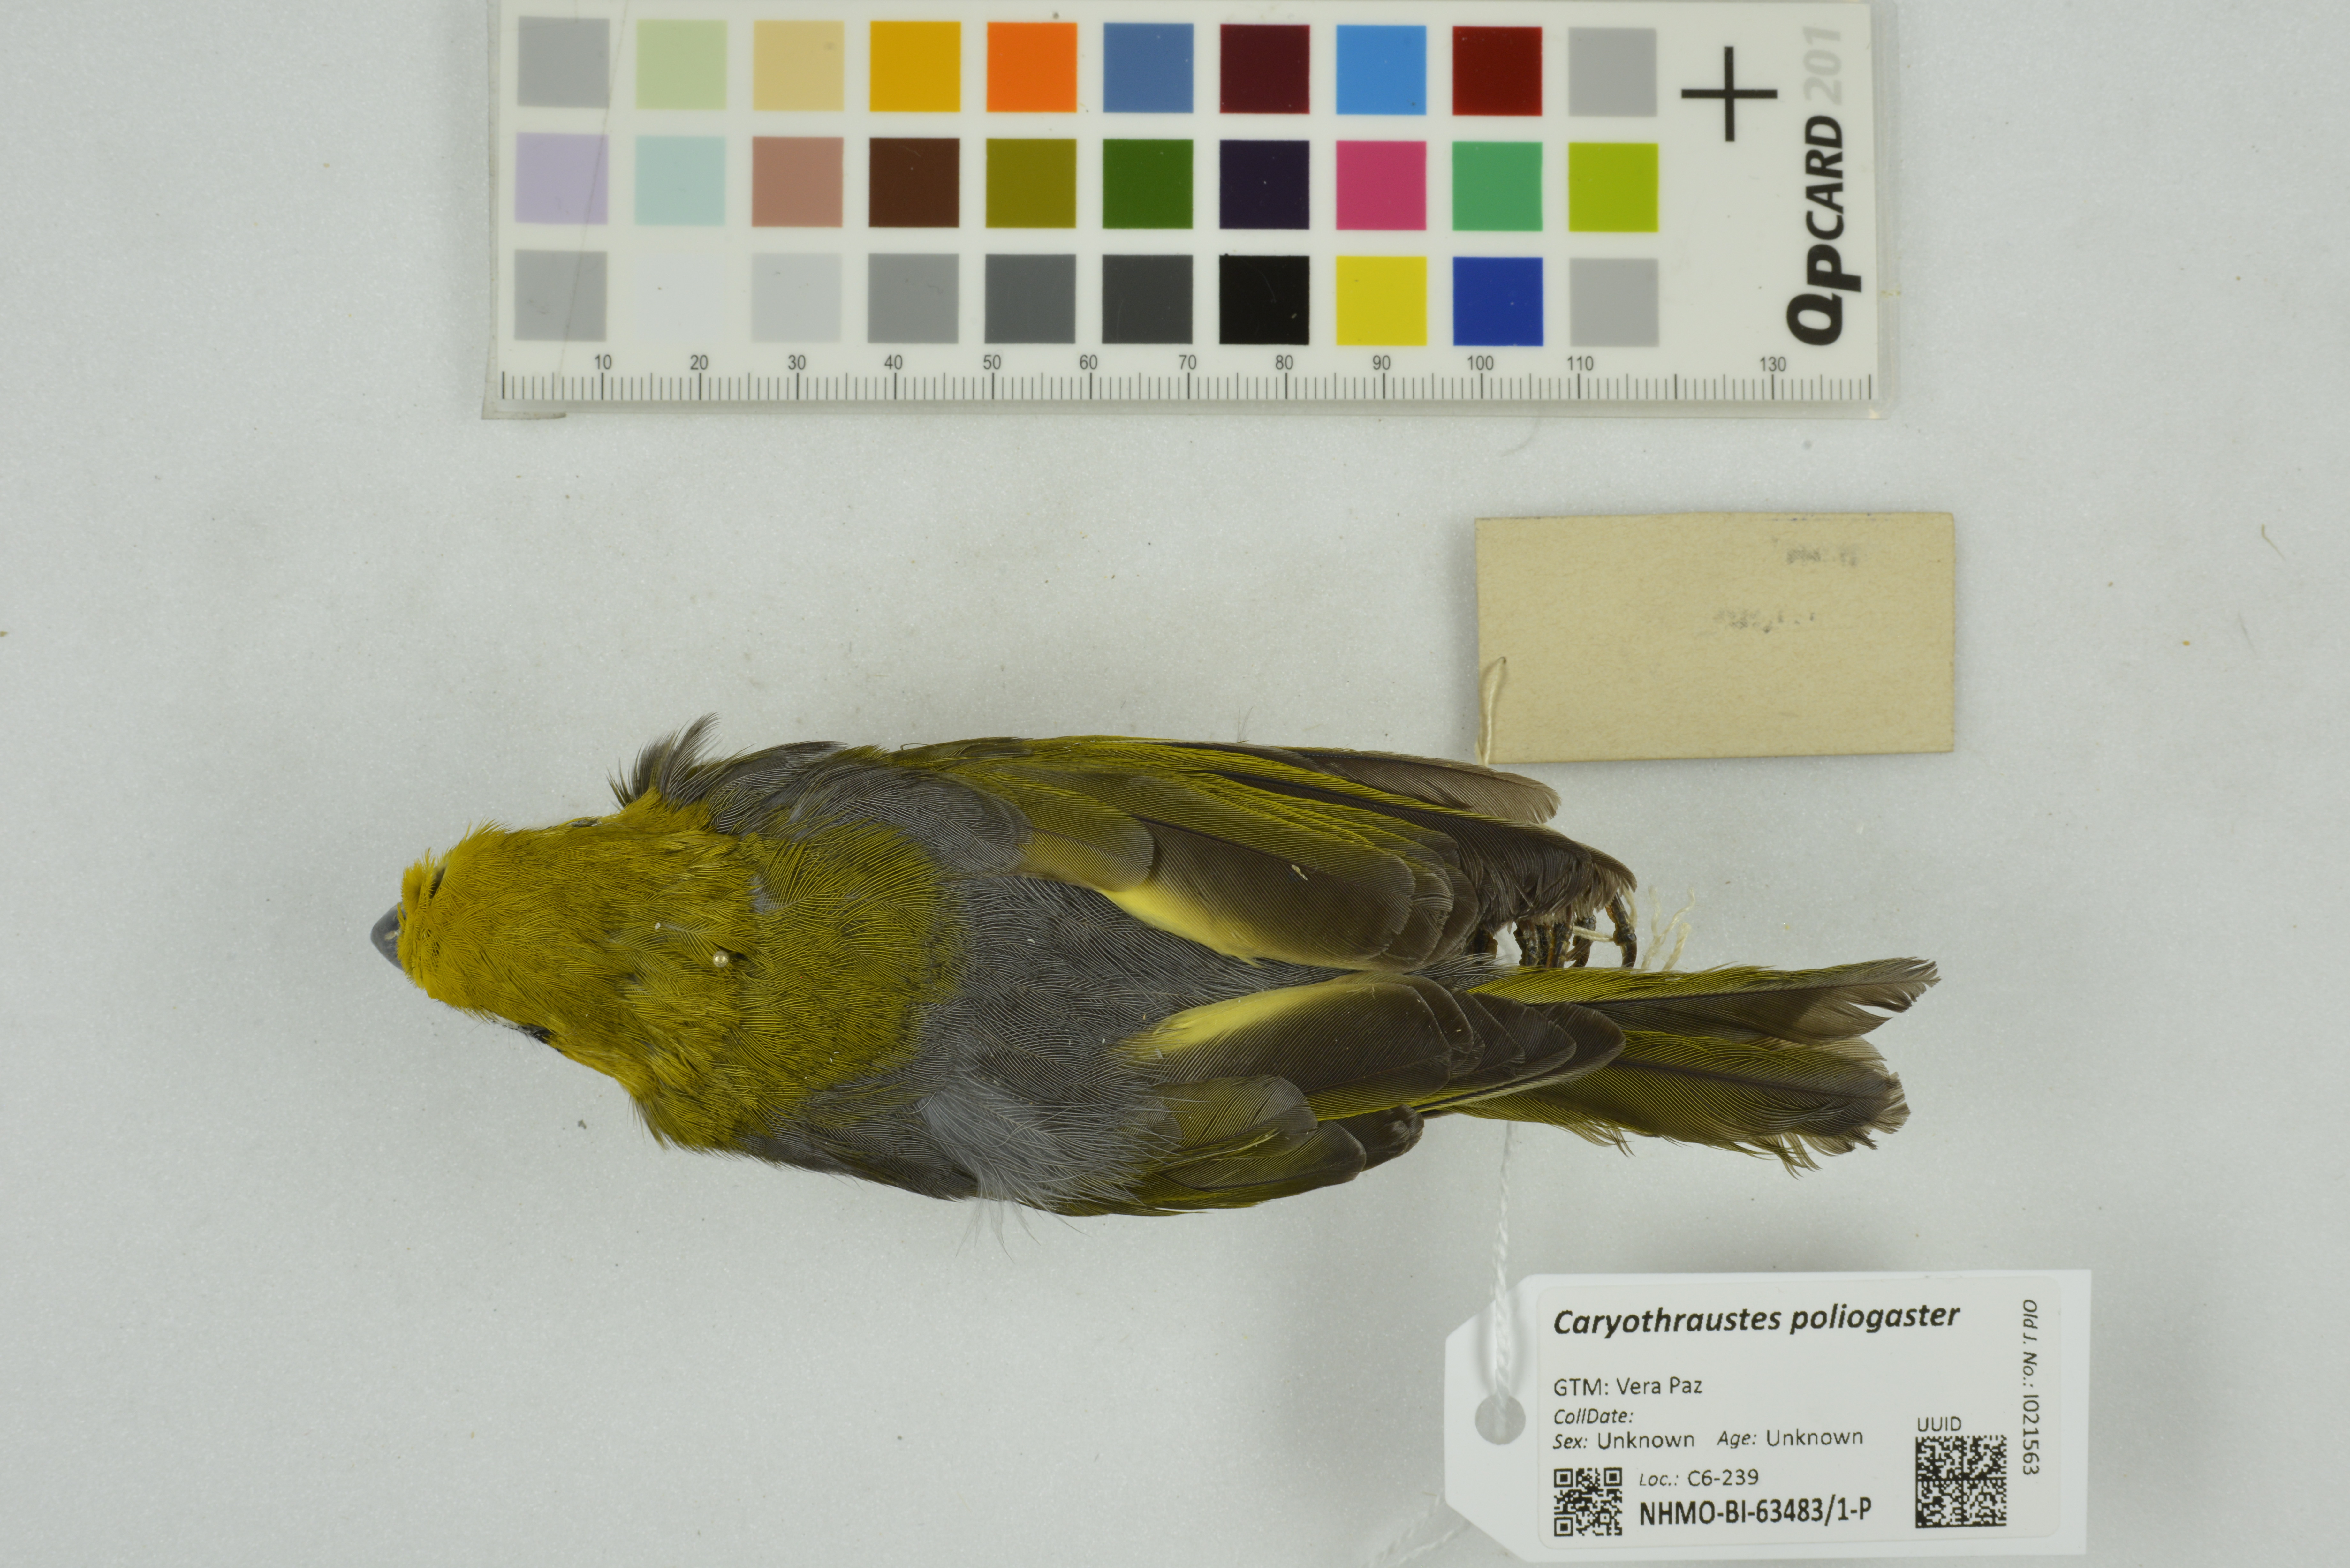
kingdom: Animalia
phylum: Chordata
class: Aves
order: Passeriformes
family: Cardinalidae
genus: Caryothraustes
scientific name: Caryothraustes poliogaster
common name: Black-faced grosbeak
